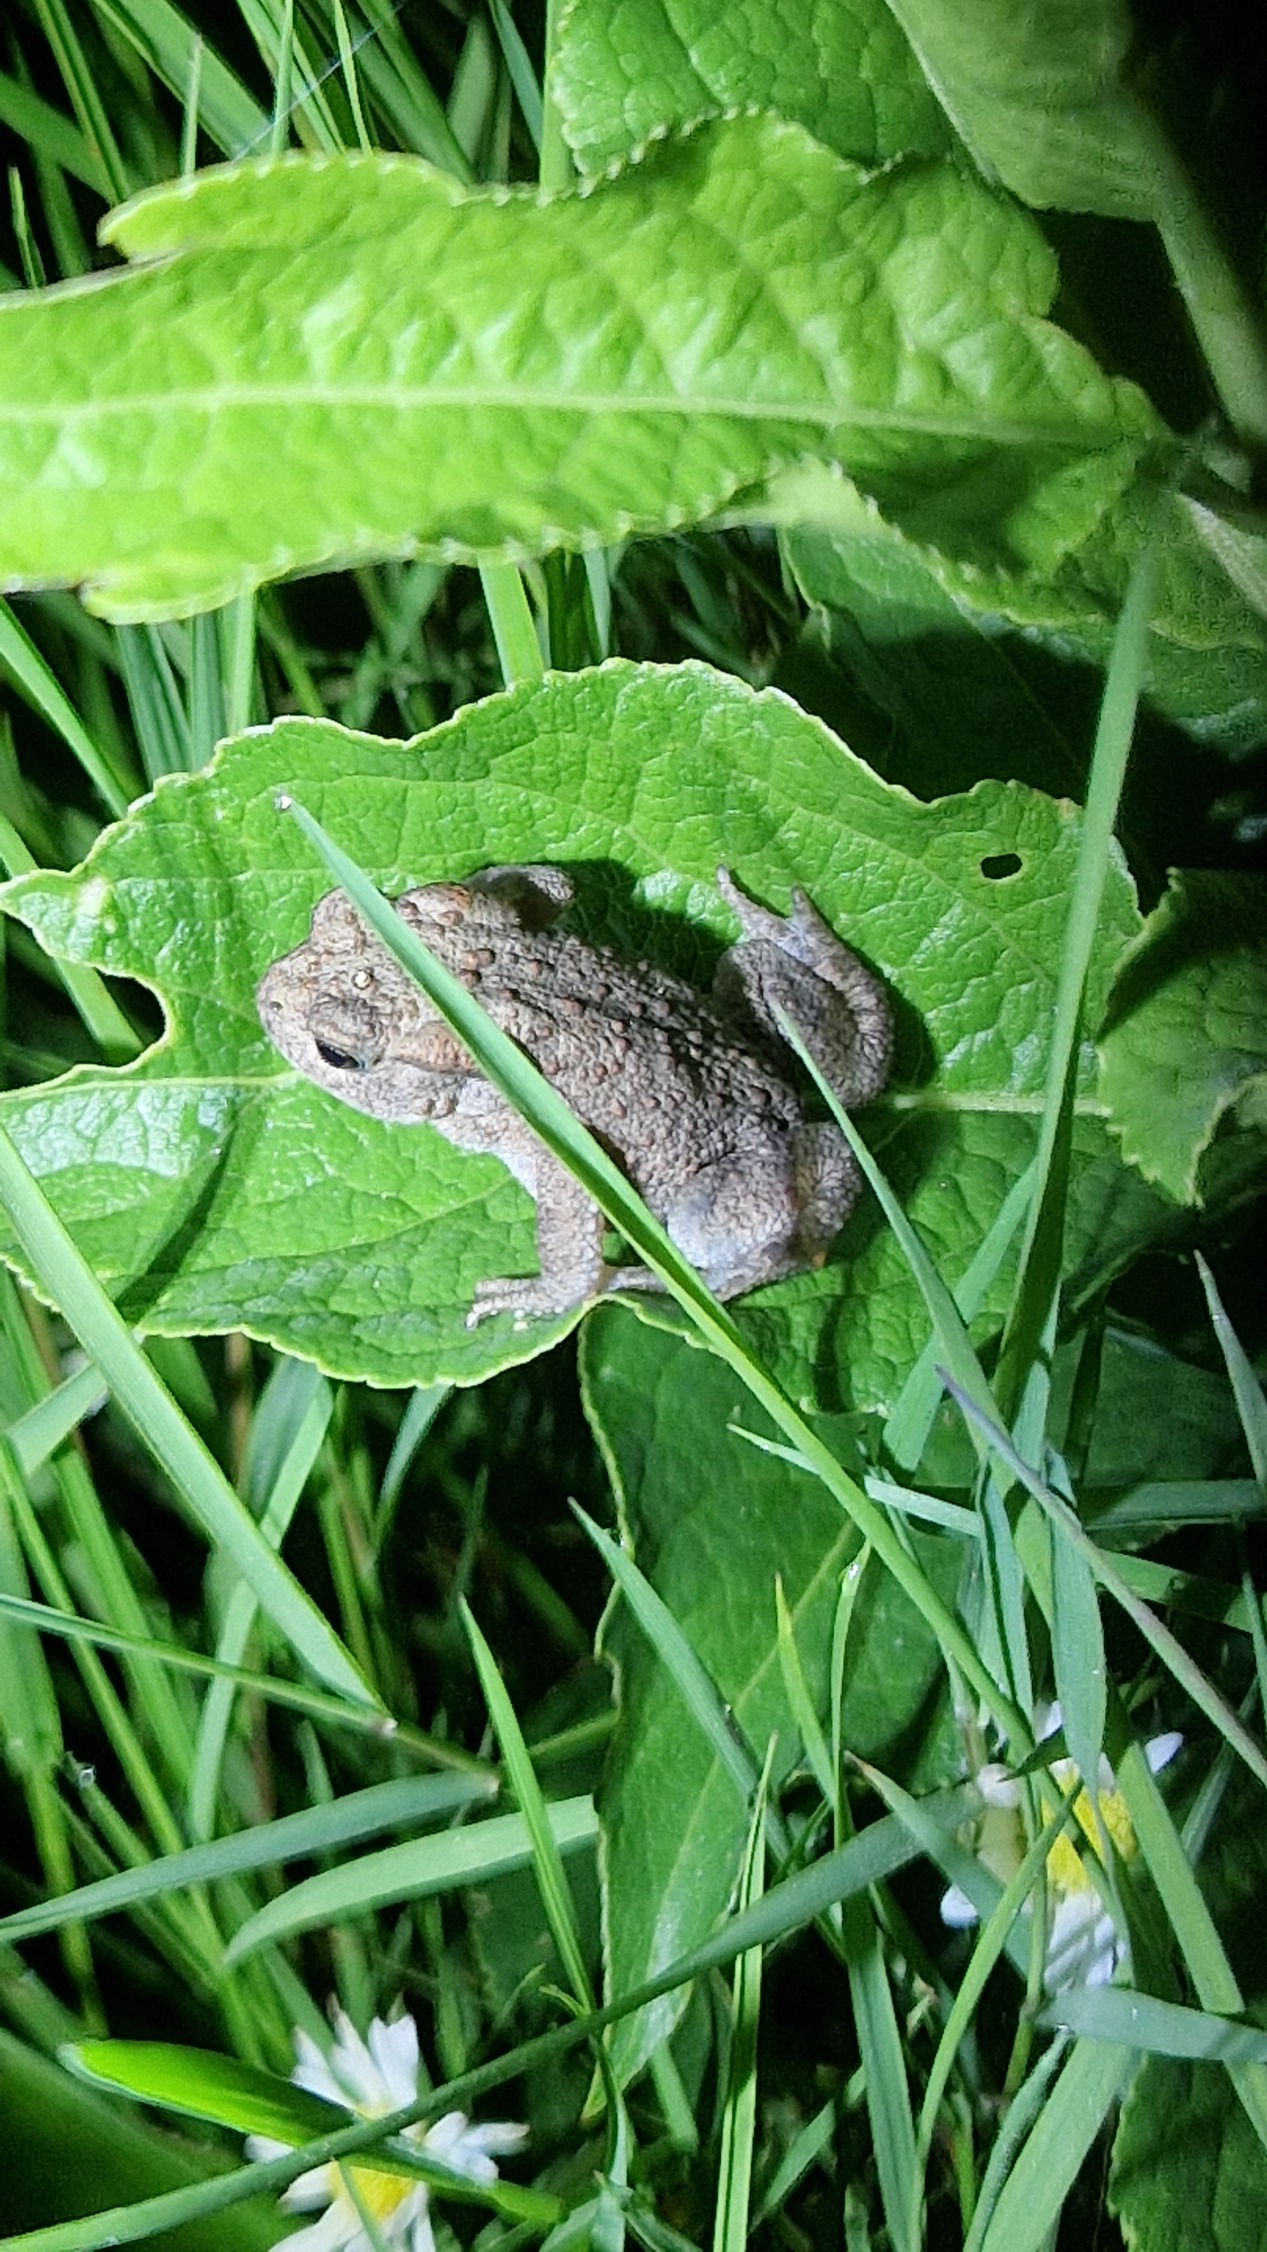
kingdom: Animalia
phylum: Chordata
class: Amphibia
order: Anura
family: Bufonidae
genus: Bufo
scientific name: Bufo bufo
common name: Skrubtudse
